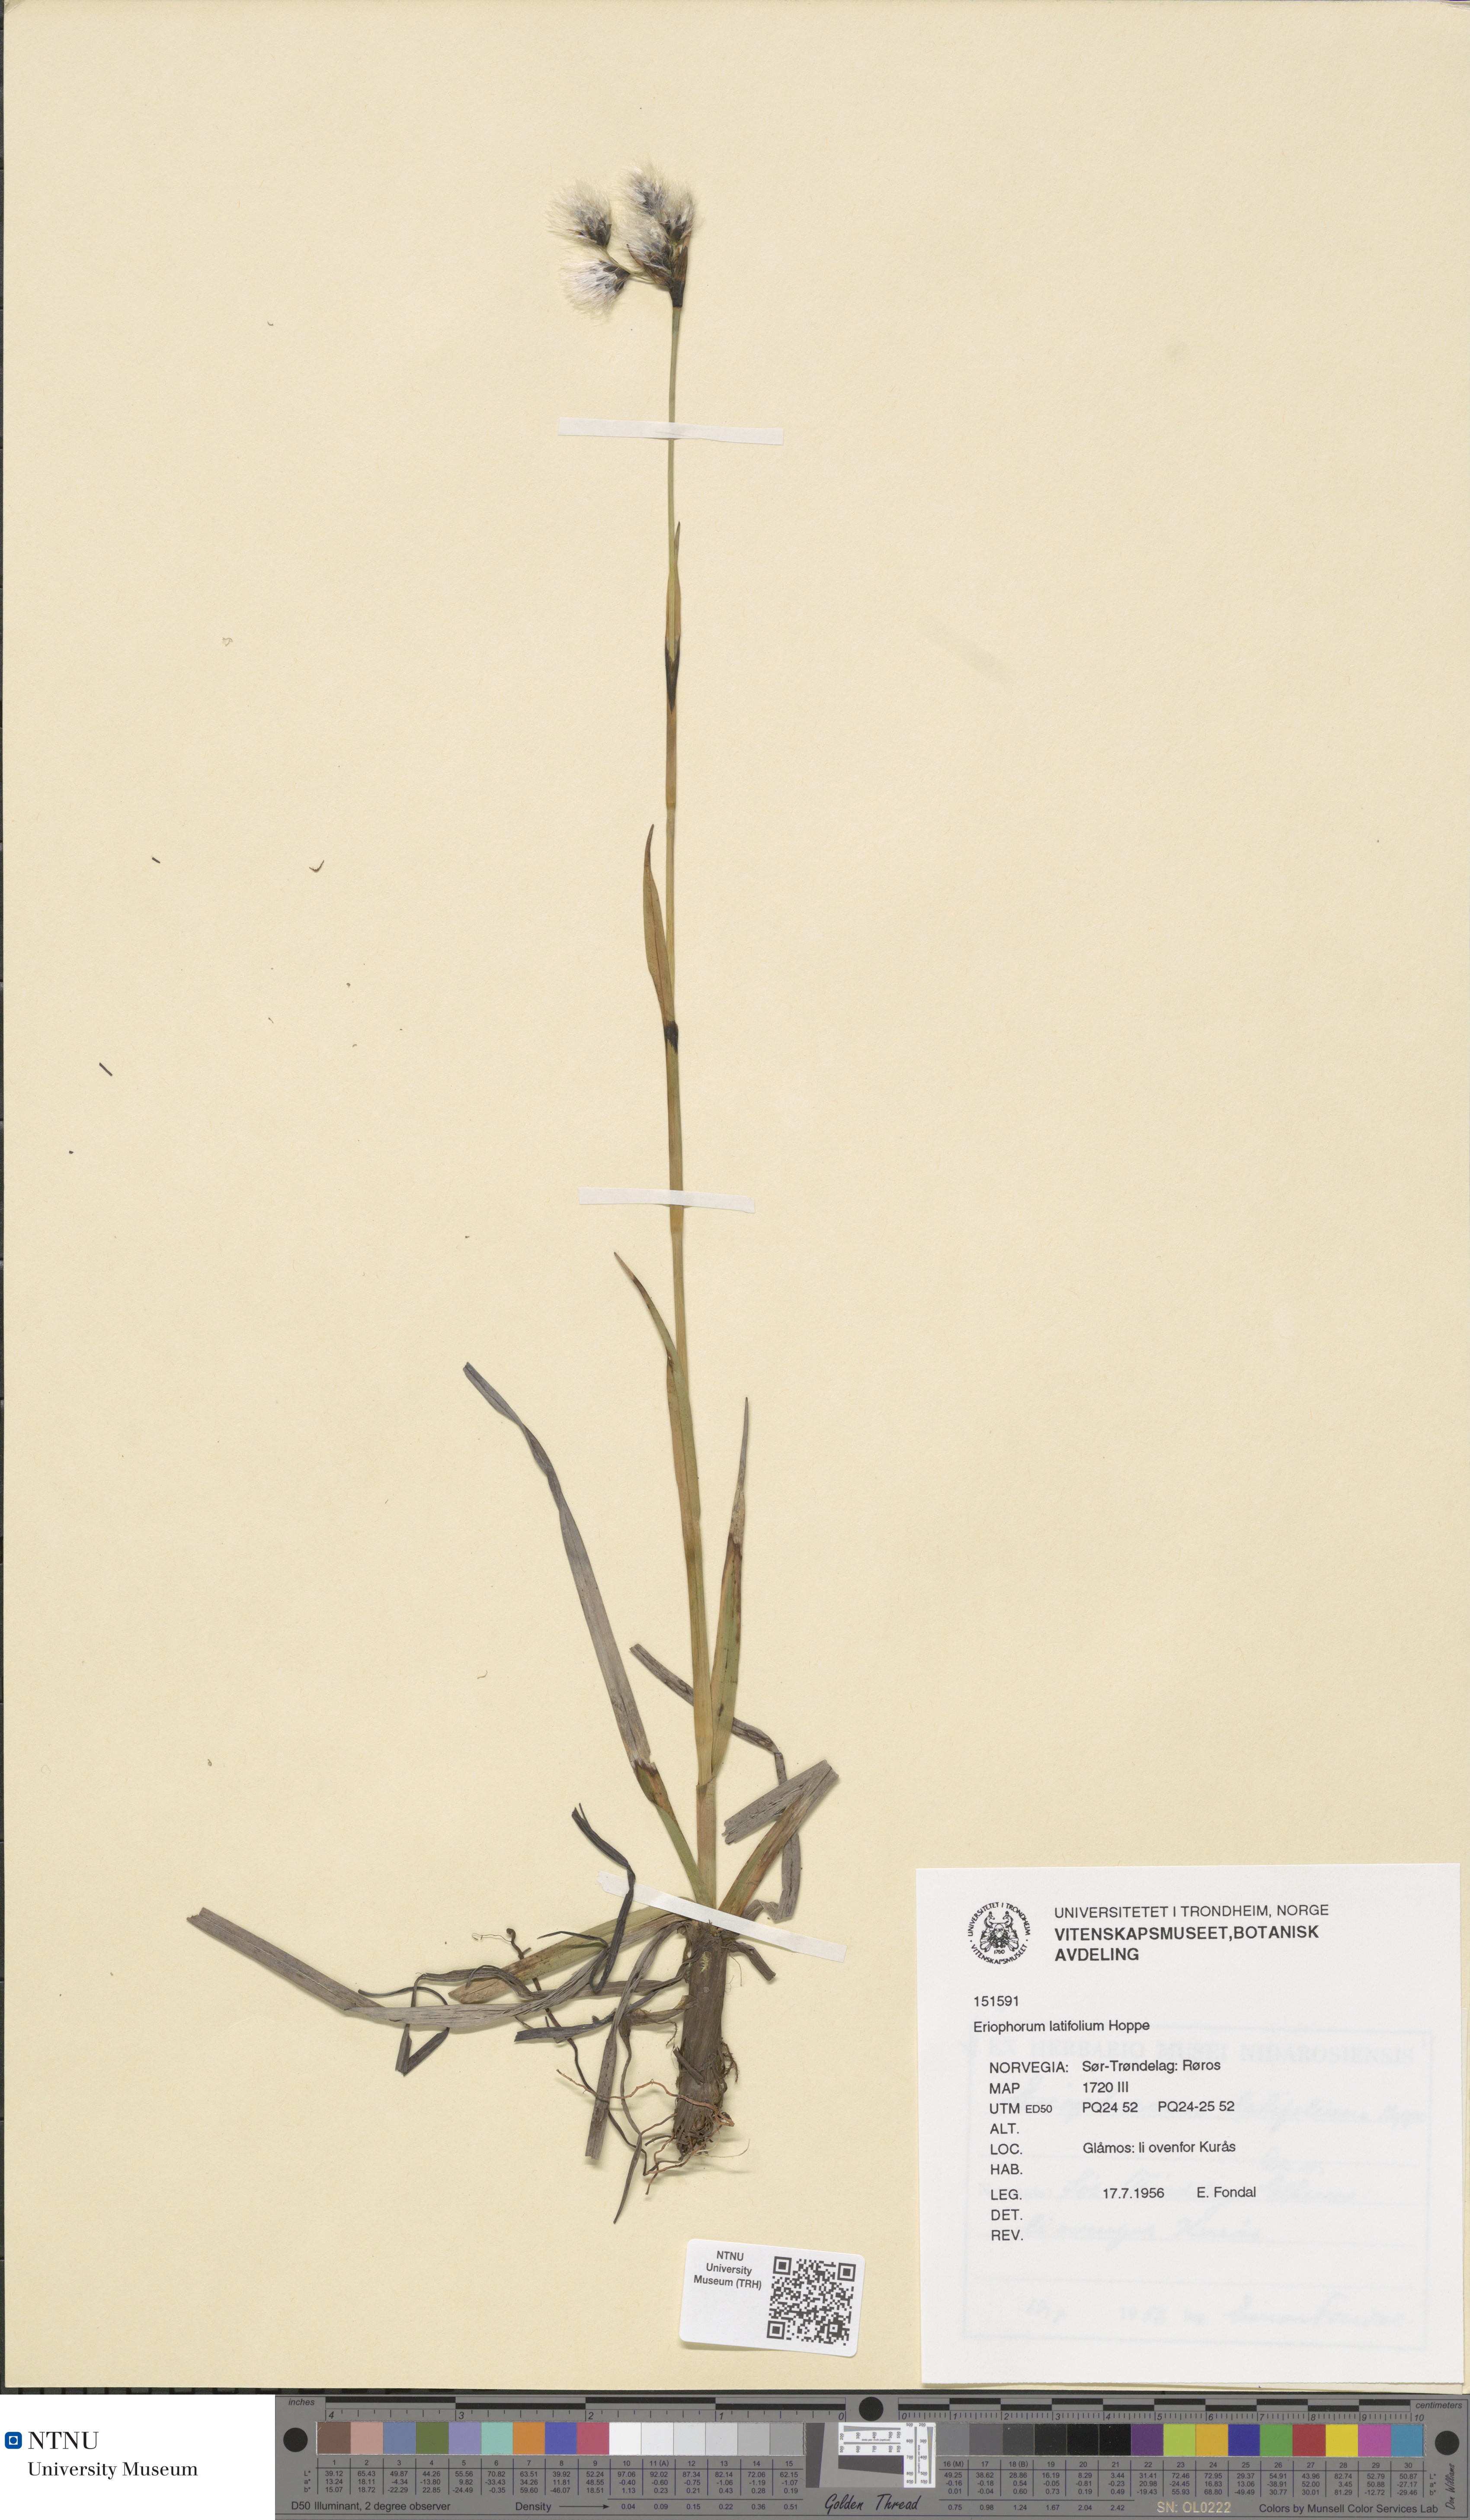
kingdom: Plantae
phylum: Tracheophyta
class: Liliopsida
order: Poales
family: Cyperaceae
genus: Eriophorum
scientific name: Eriophorum latifolium
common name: Broad-leaved cottongrass
